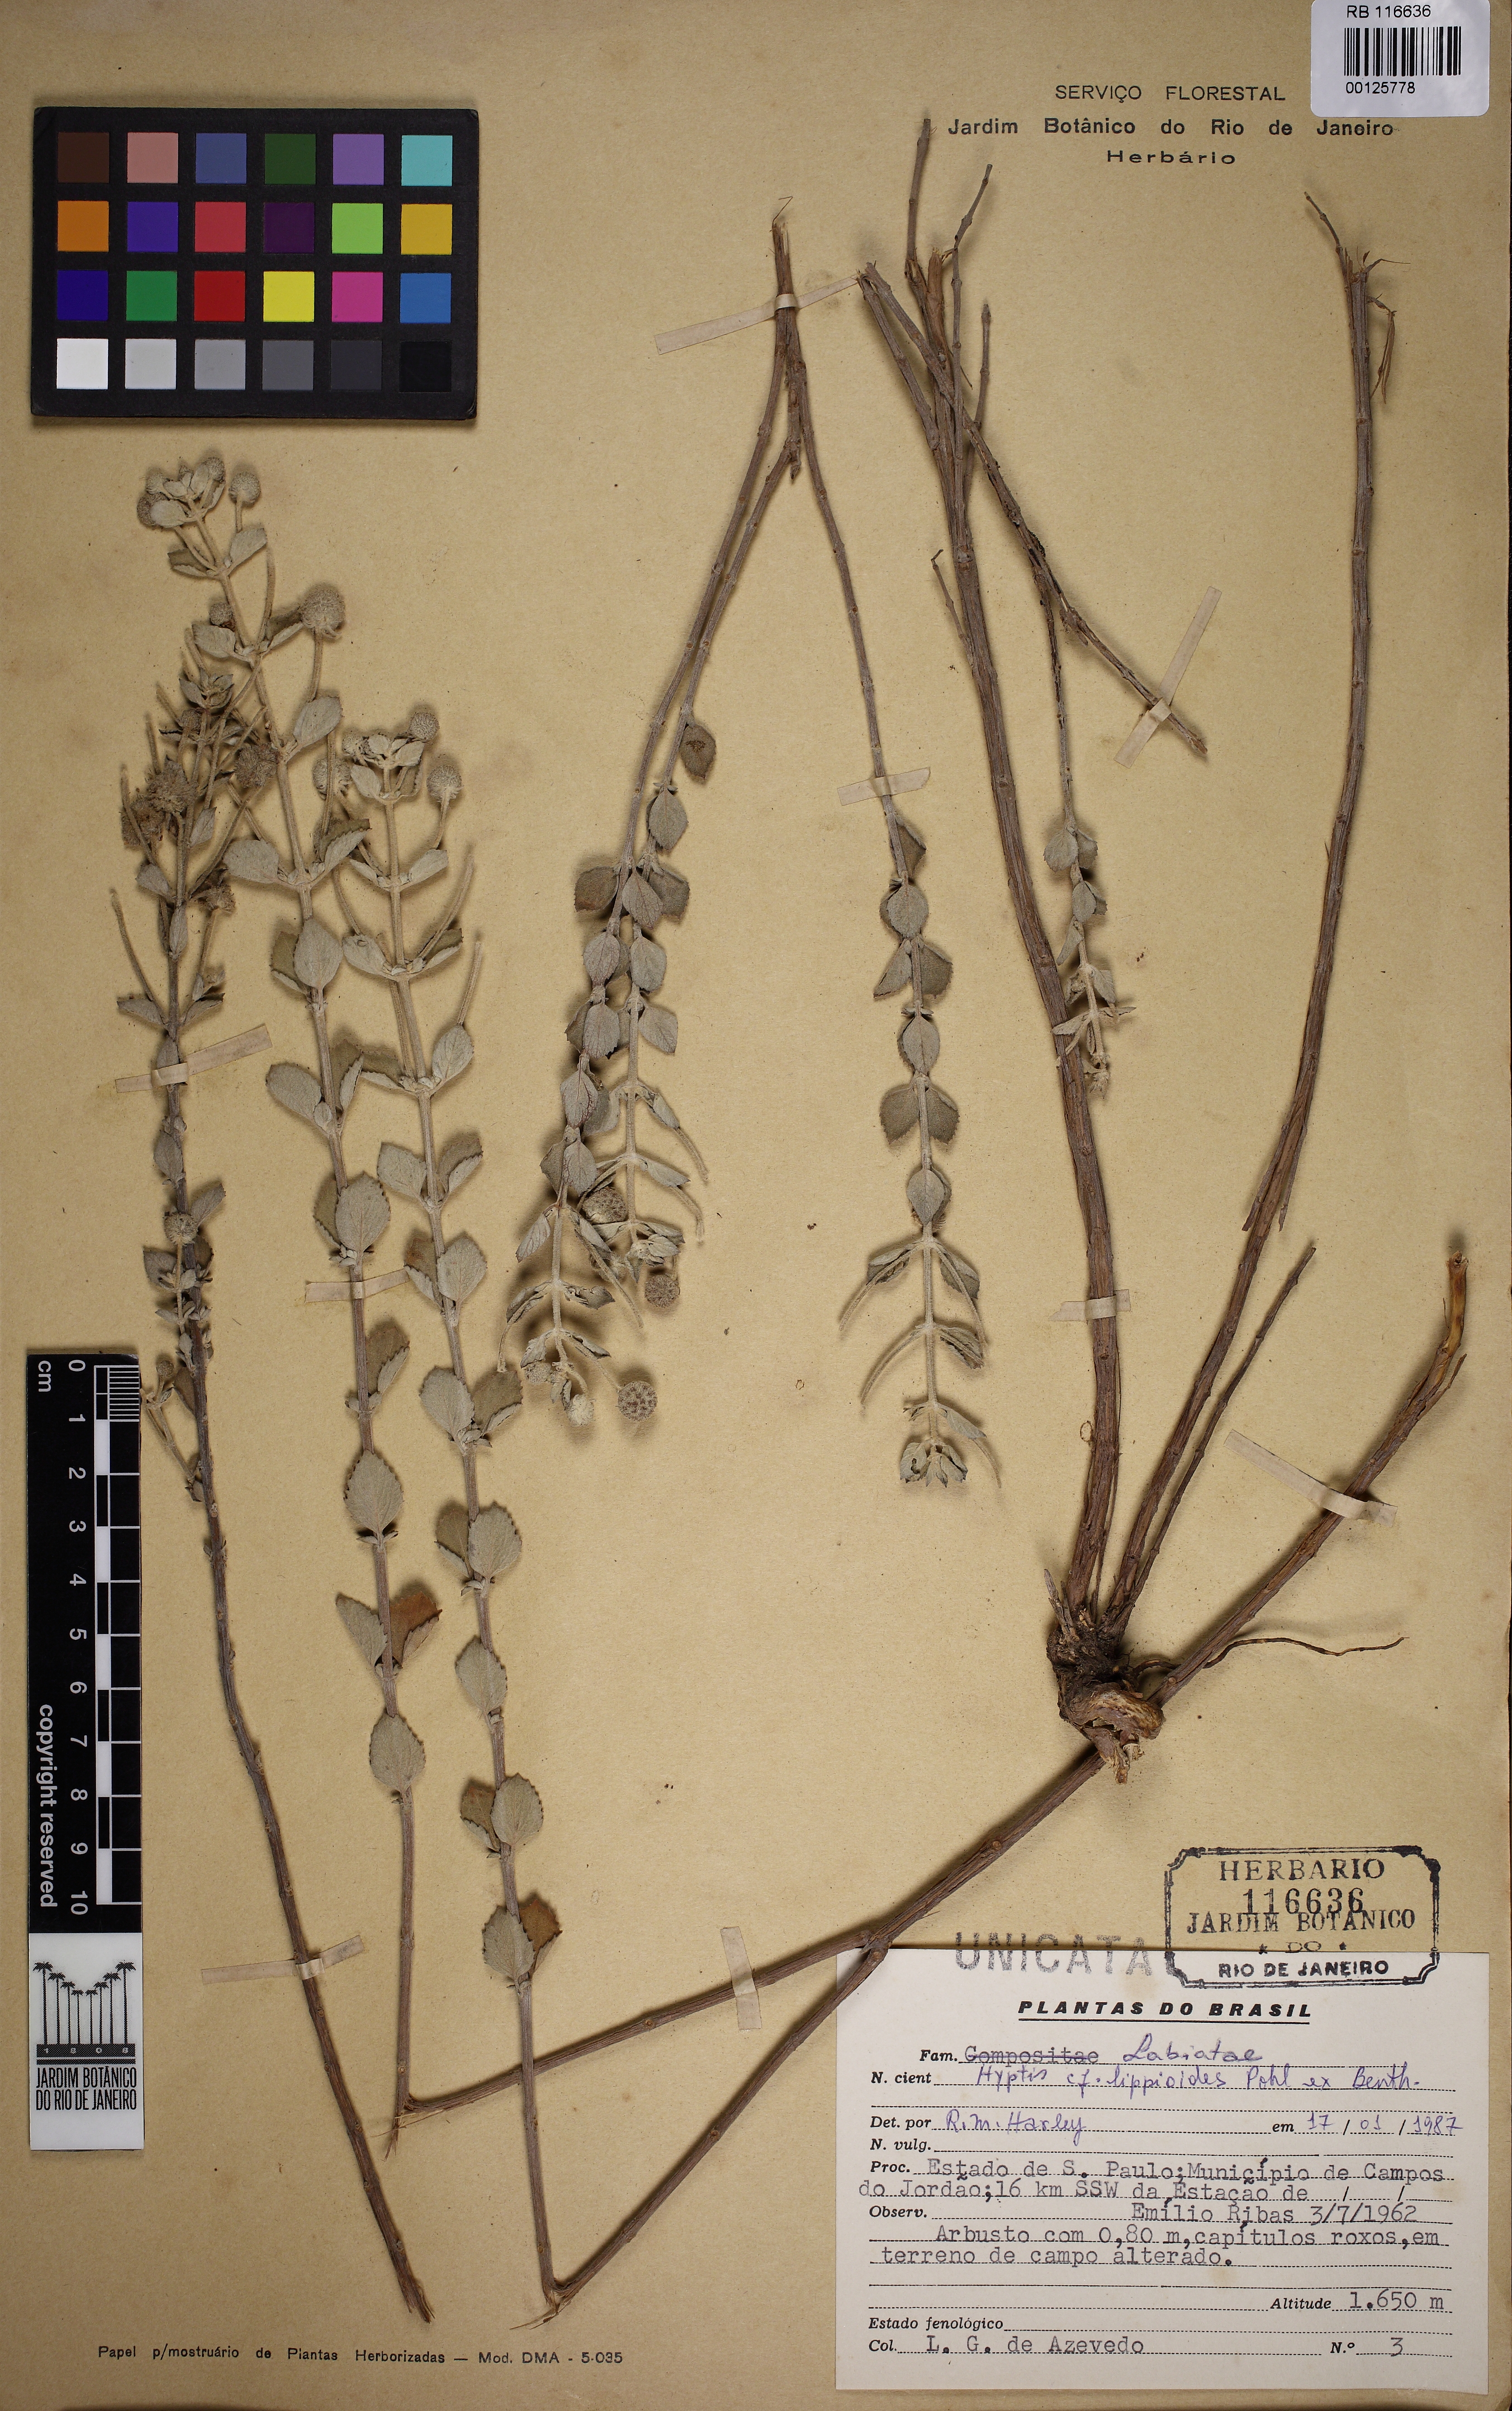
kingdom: Plantae
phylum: Tracheophyta
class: Magnoliopsida
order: Lamiales
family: Lamiaceae
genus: Cyanocephalus
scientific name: Cyanocephalus lippioides
